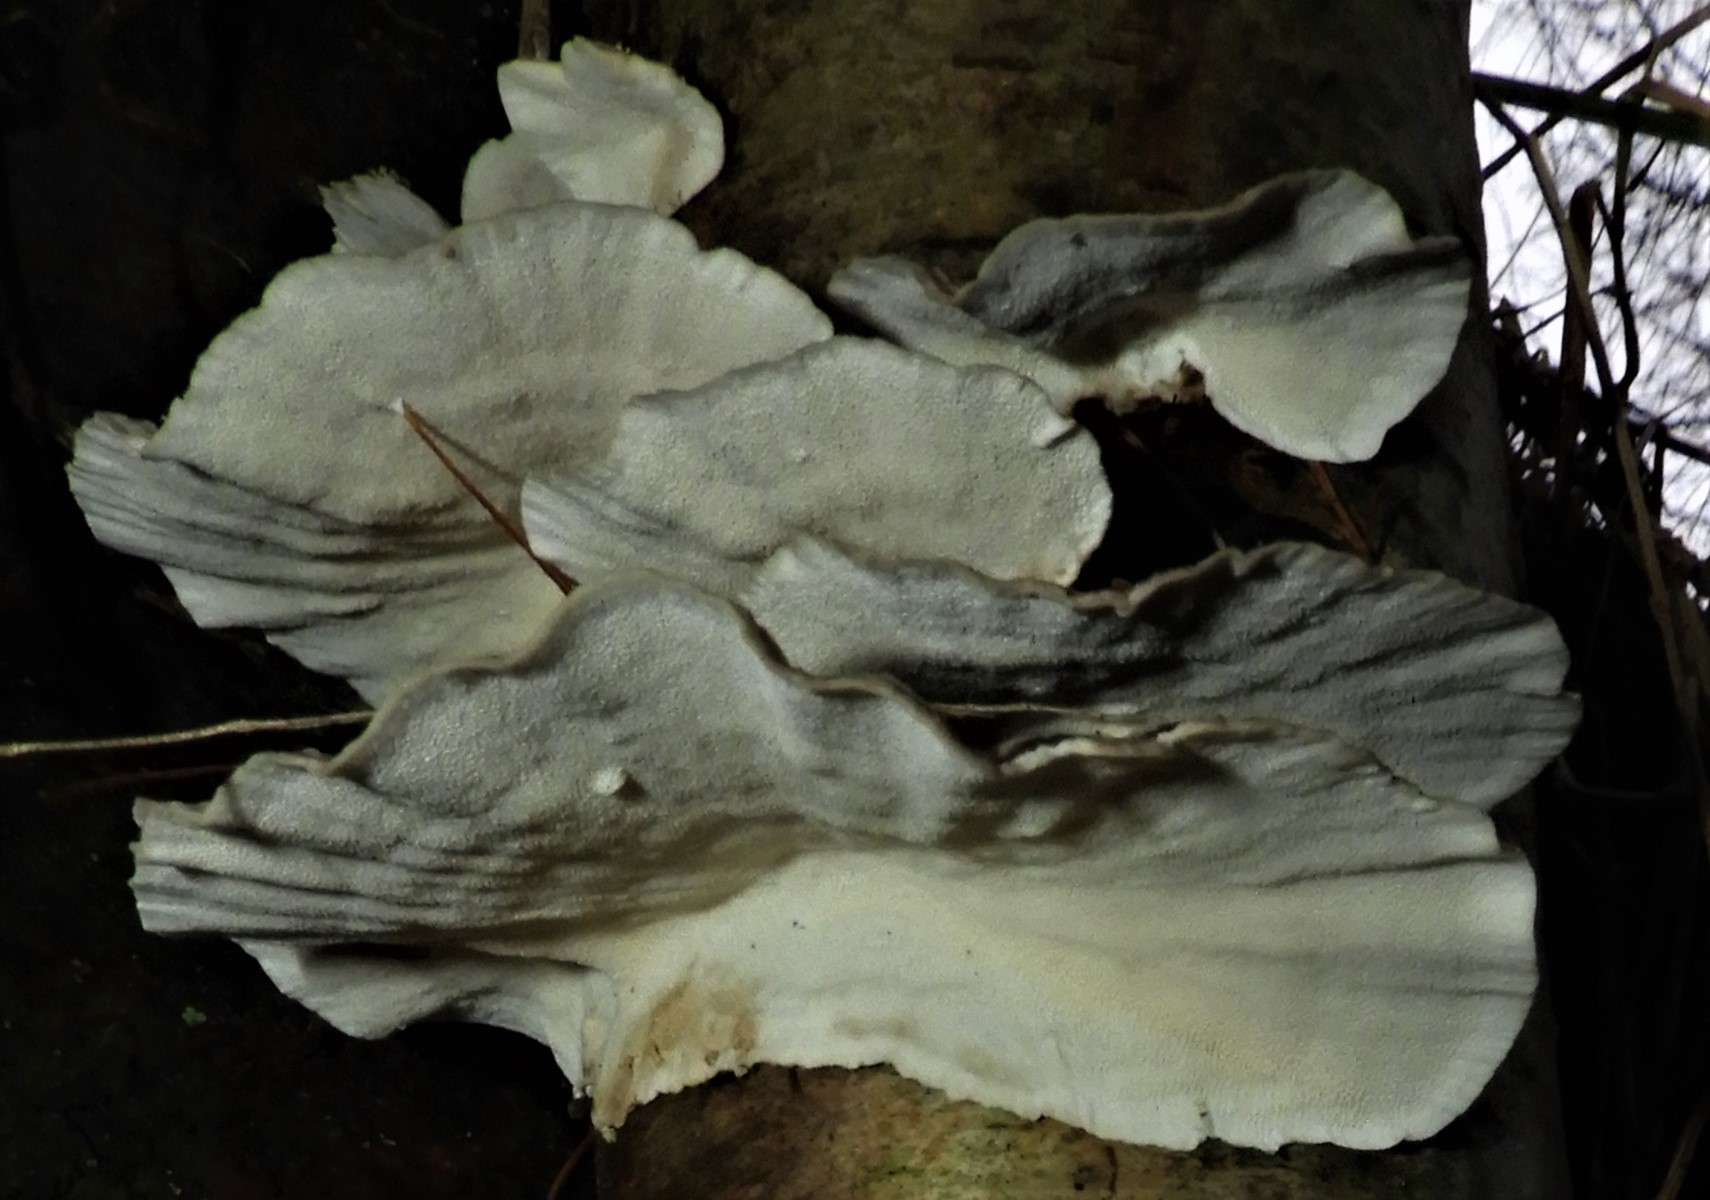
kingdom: Fungi
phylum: Basidiomycota
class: Agaricomycetes
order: Polyporales
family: Polyporaceae
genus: Trametes
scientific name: Trametes versicolor
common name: broget læderporesvamp
